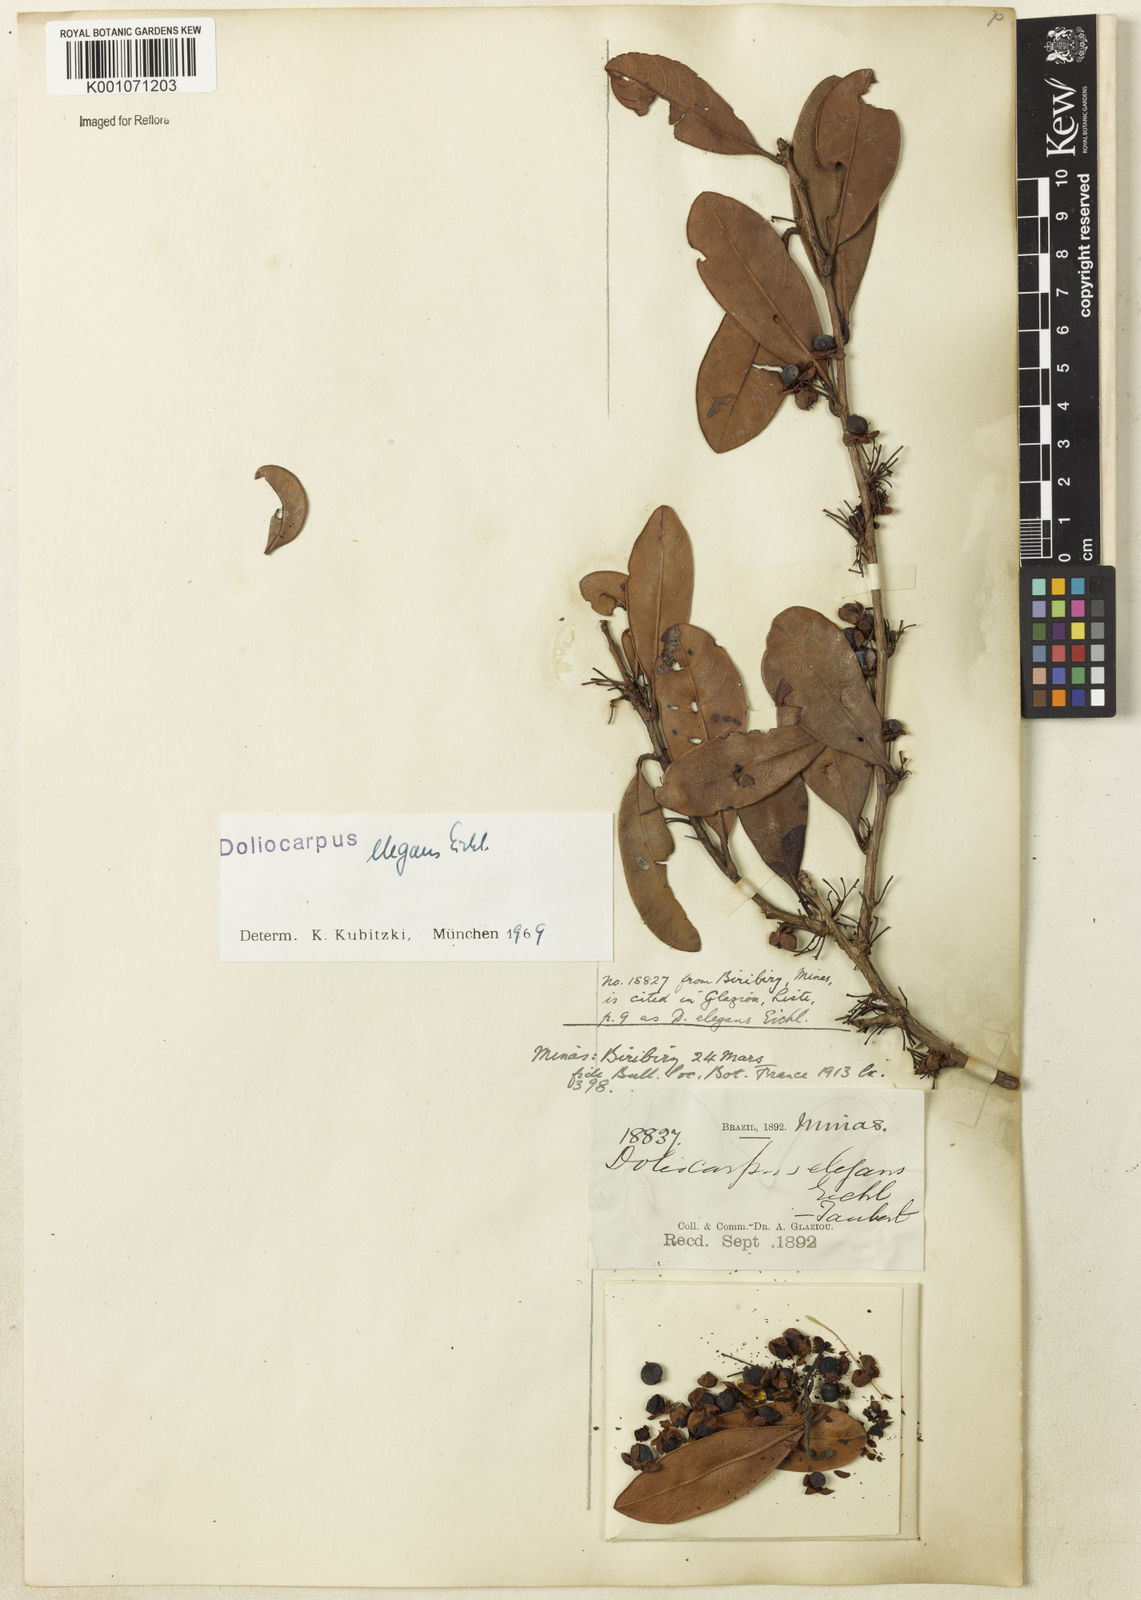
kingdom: Plantae
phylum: Tracheophyta
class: Magnoliopsida
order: Dilleniales
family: Dilleniaceae
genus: Doliocarpus
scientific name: Doliocarpus elegans
